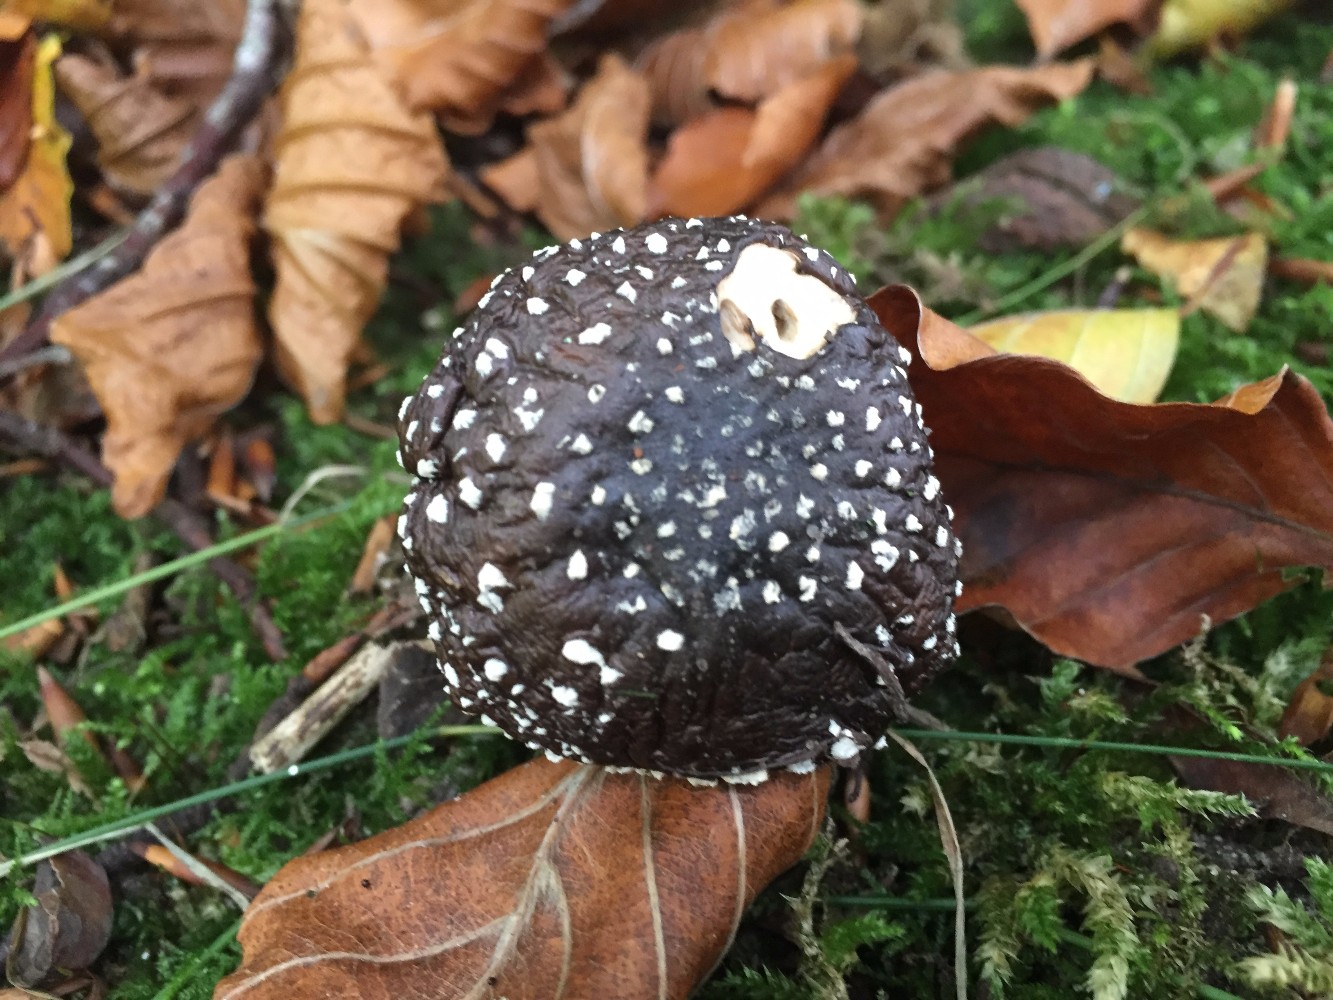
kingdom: Fungi
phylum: Basidiomycota
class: Agaricomycetes
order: Agaricales
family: Amanitaceae
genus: Amanita
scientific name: Amanita pantherina
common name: panter-fluesvamp
